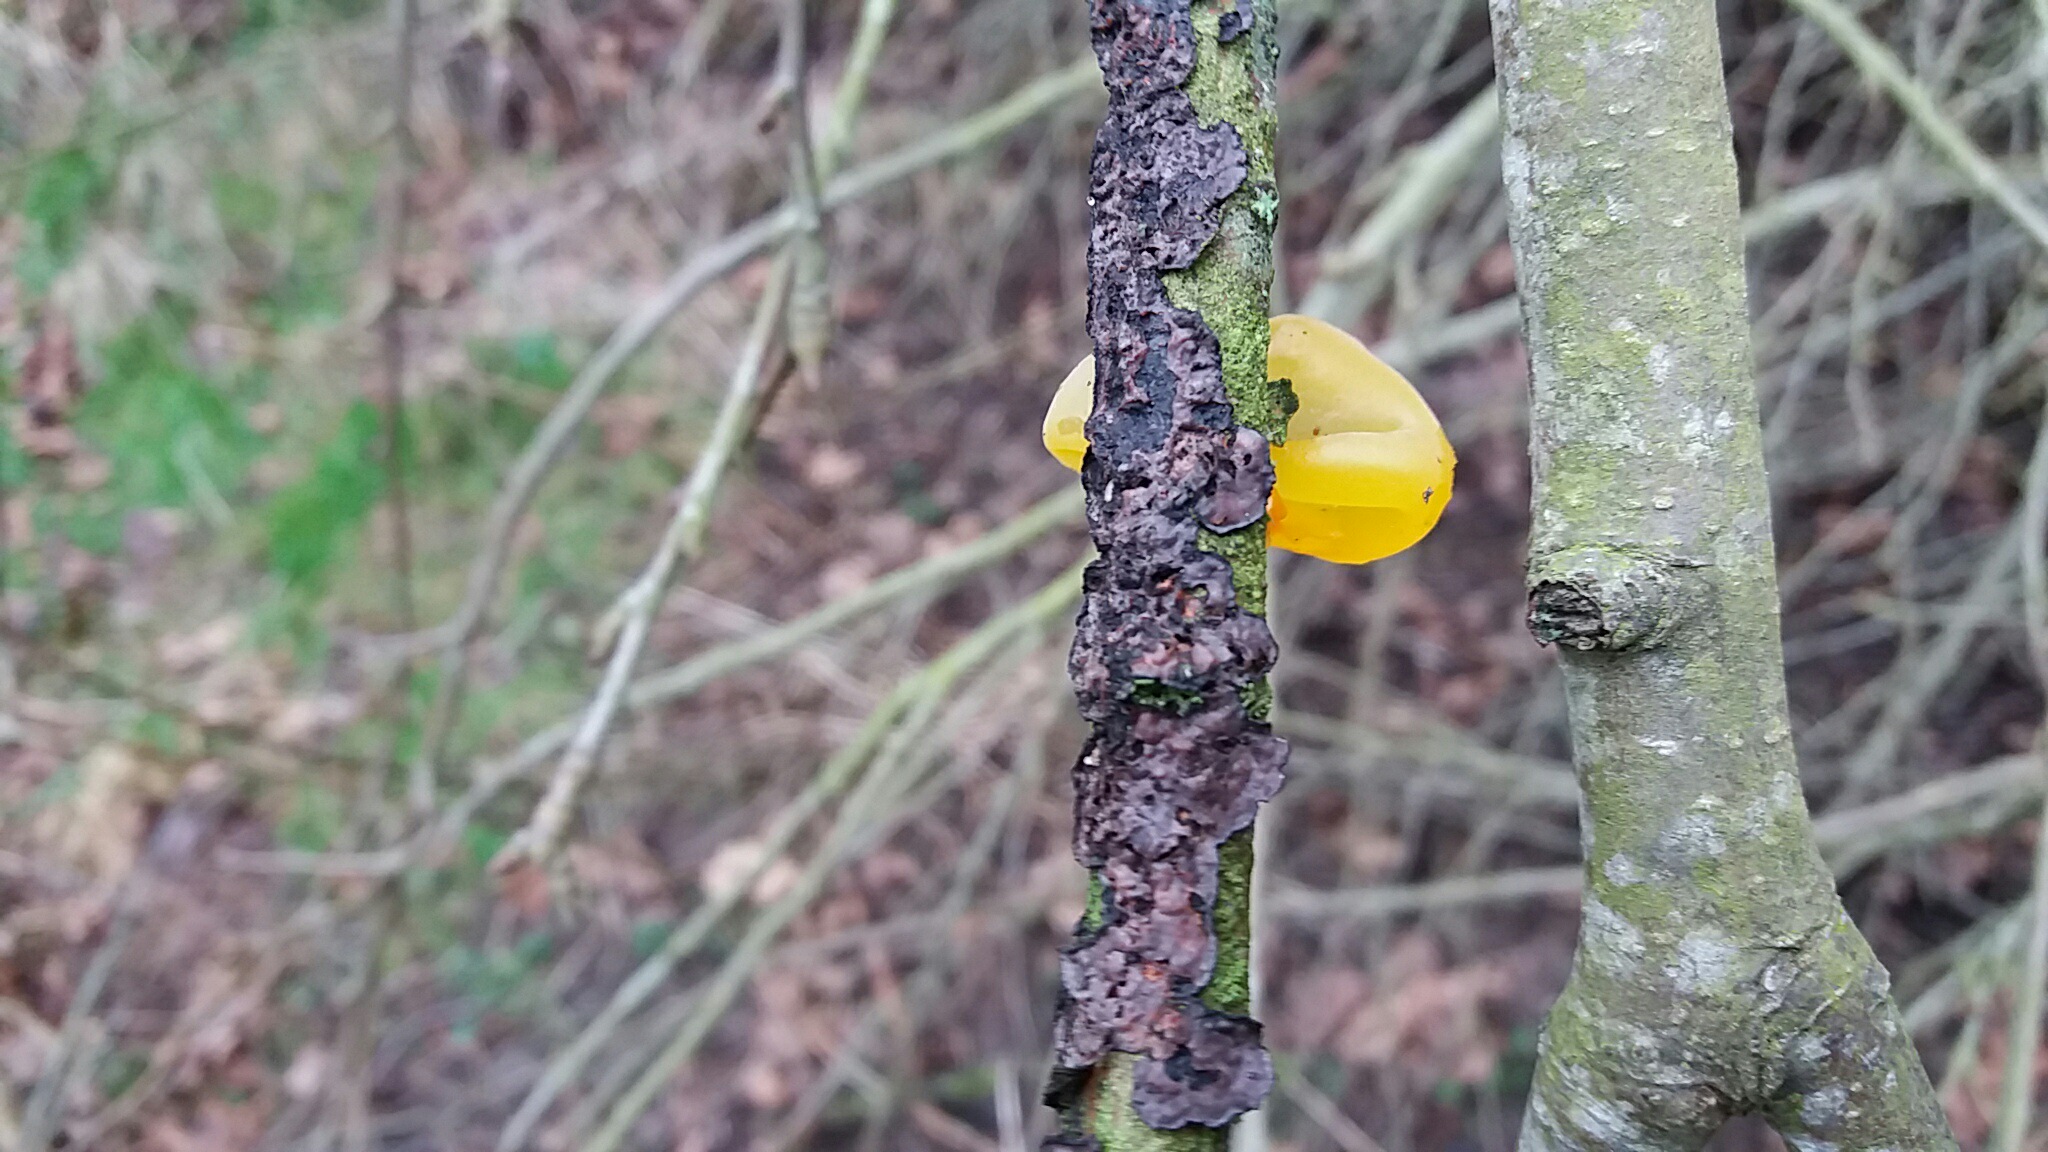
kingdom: Fungi
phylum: Basidiomycota
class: Tremellomycetes
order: Tremellales
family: Tremellaceae
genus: Tremella
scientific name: Tremella mesenterica
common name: gul bævresvamp
